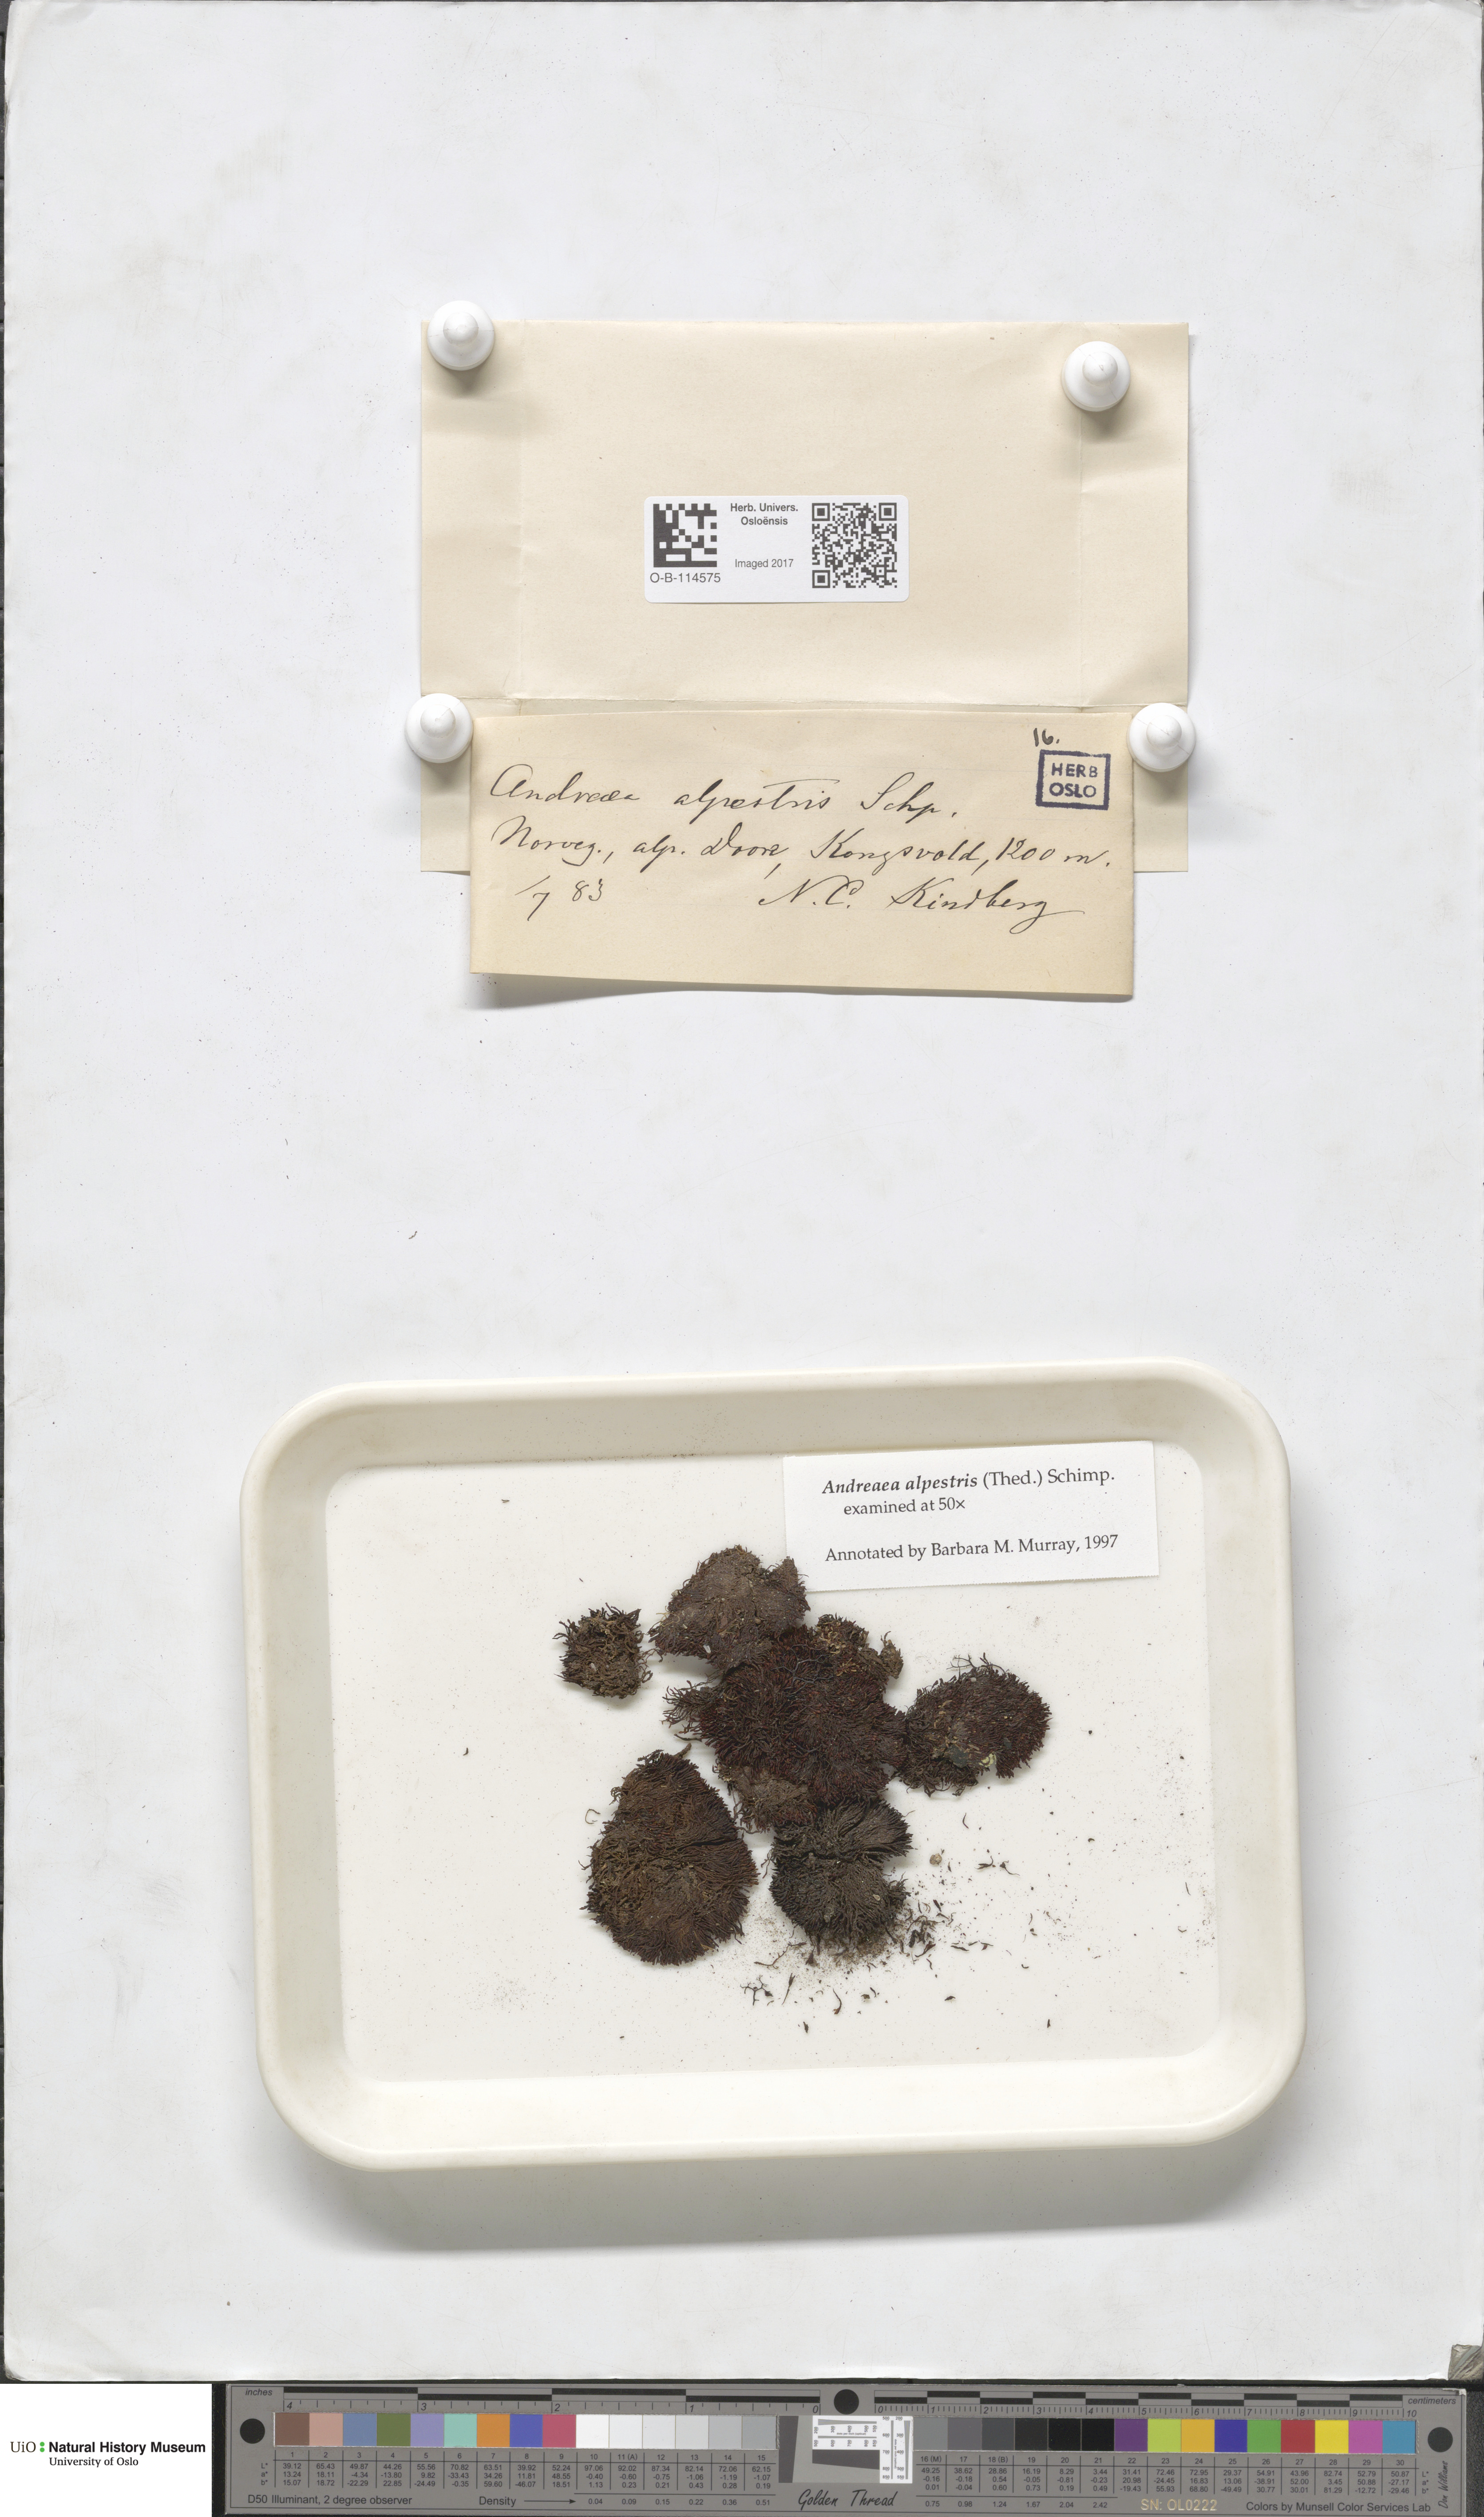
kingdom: Plantae
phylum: Bryophyta
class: Andreaeopsida
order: Andreaeales
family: Andreaeaceae
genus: Andreaea
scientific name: Andreaea alpestris
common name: Slender rock-moss
